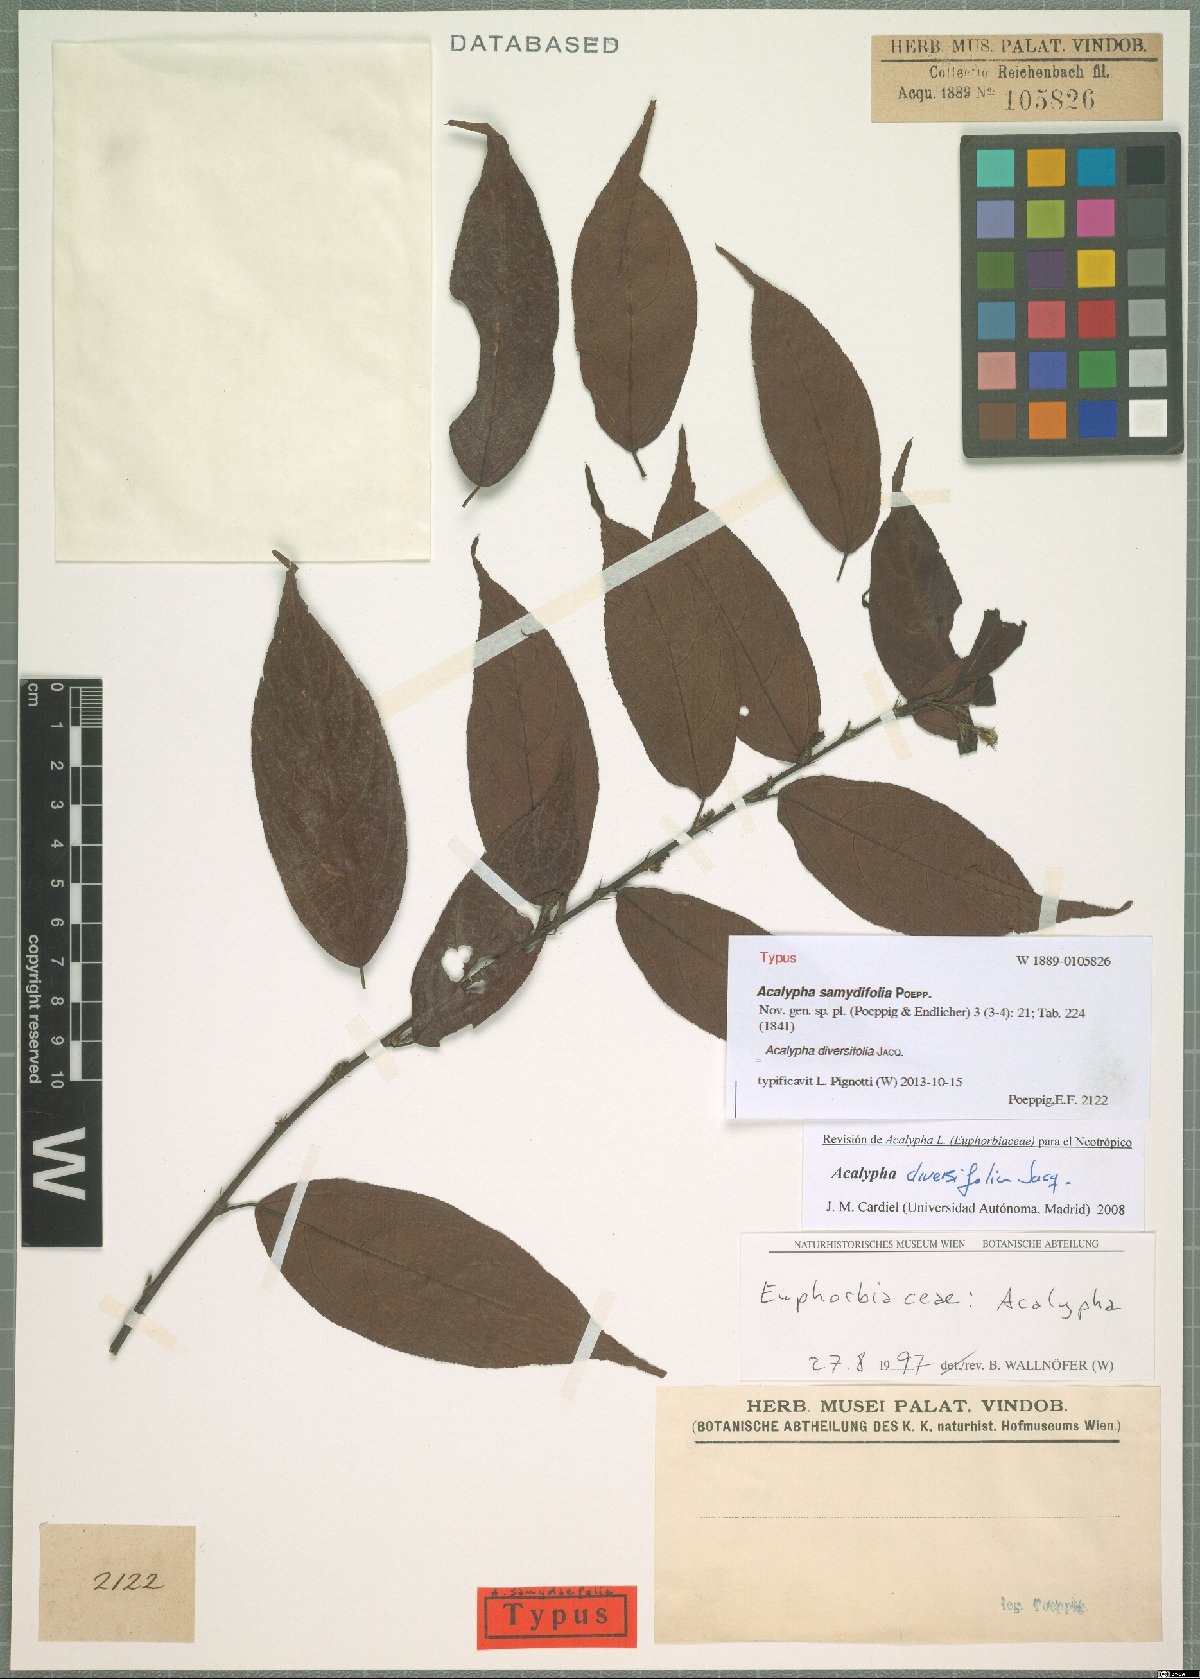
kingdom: Plantae
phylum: Tracheophyta
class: Magnoliopsida
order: Malpighiales
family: Euphorbiaceae
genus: Acalypha
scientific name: Acalypha diversifolia
